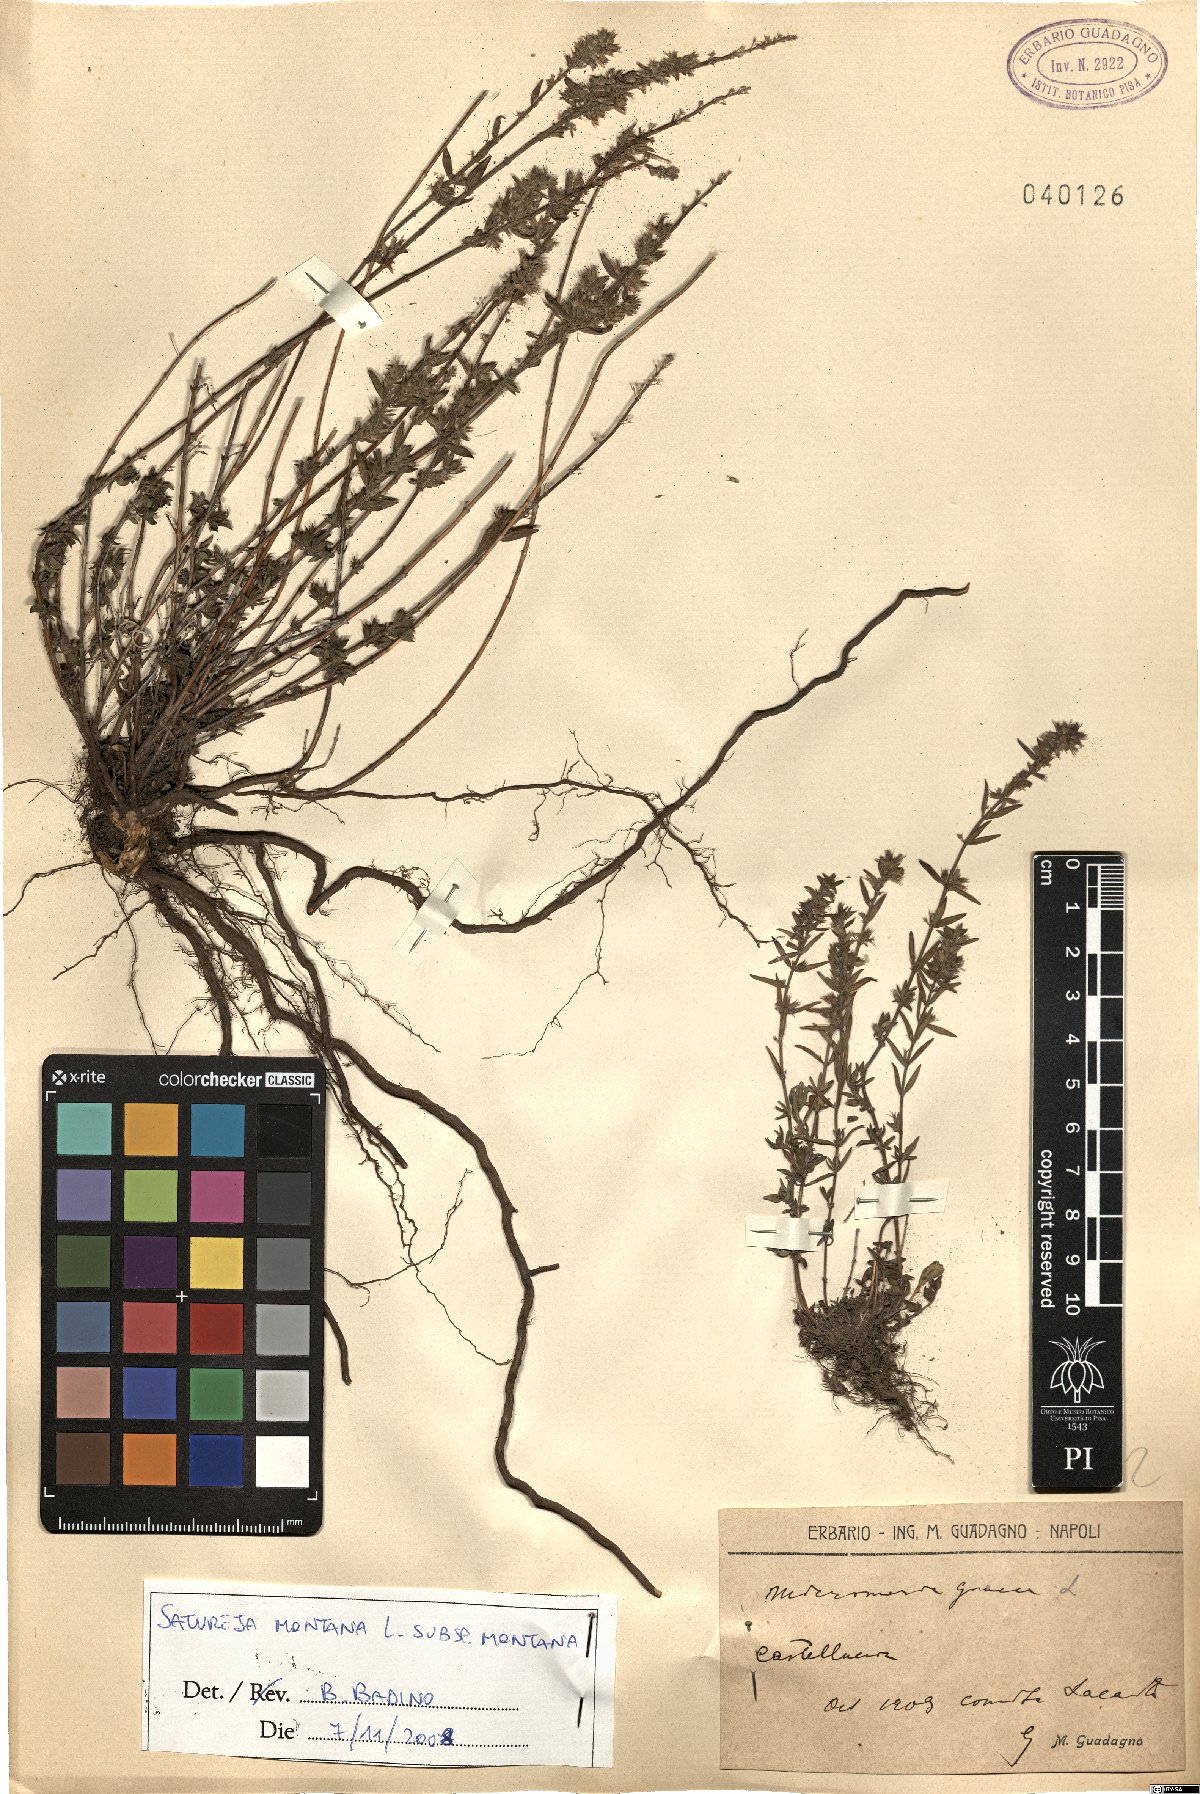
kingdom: Plantae
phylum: Tracheophyta
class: Magnoliopsida
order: Lamiales
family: Lamiaceae
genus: Satureja
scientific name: Satureja montana
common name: Winter savory
